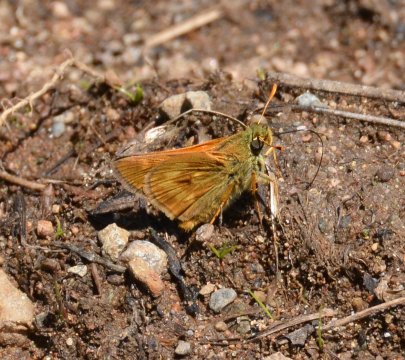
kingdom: Animalia
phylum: Arthropoda
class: Insecta
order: Lepidoptera
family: Hesperiidae
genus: Polites
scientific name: Polites
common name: Long Dash Skipper
